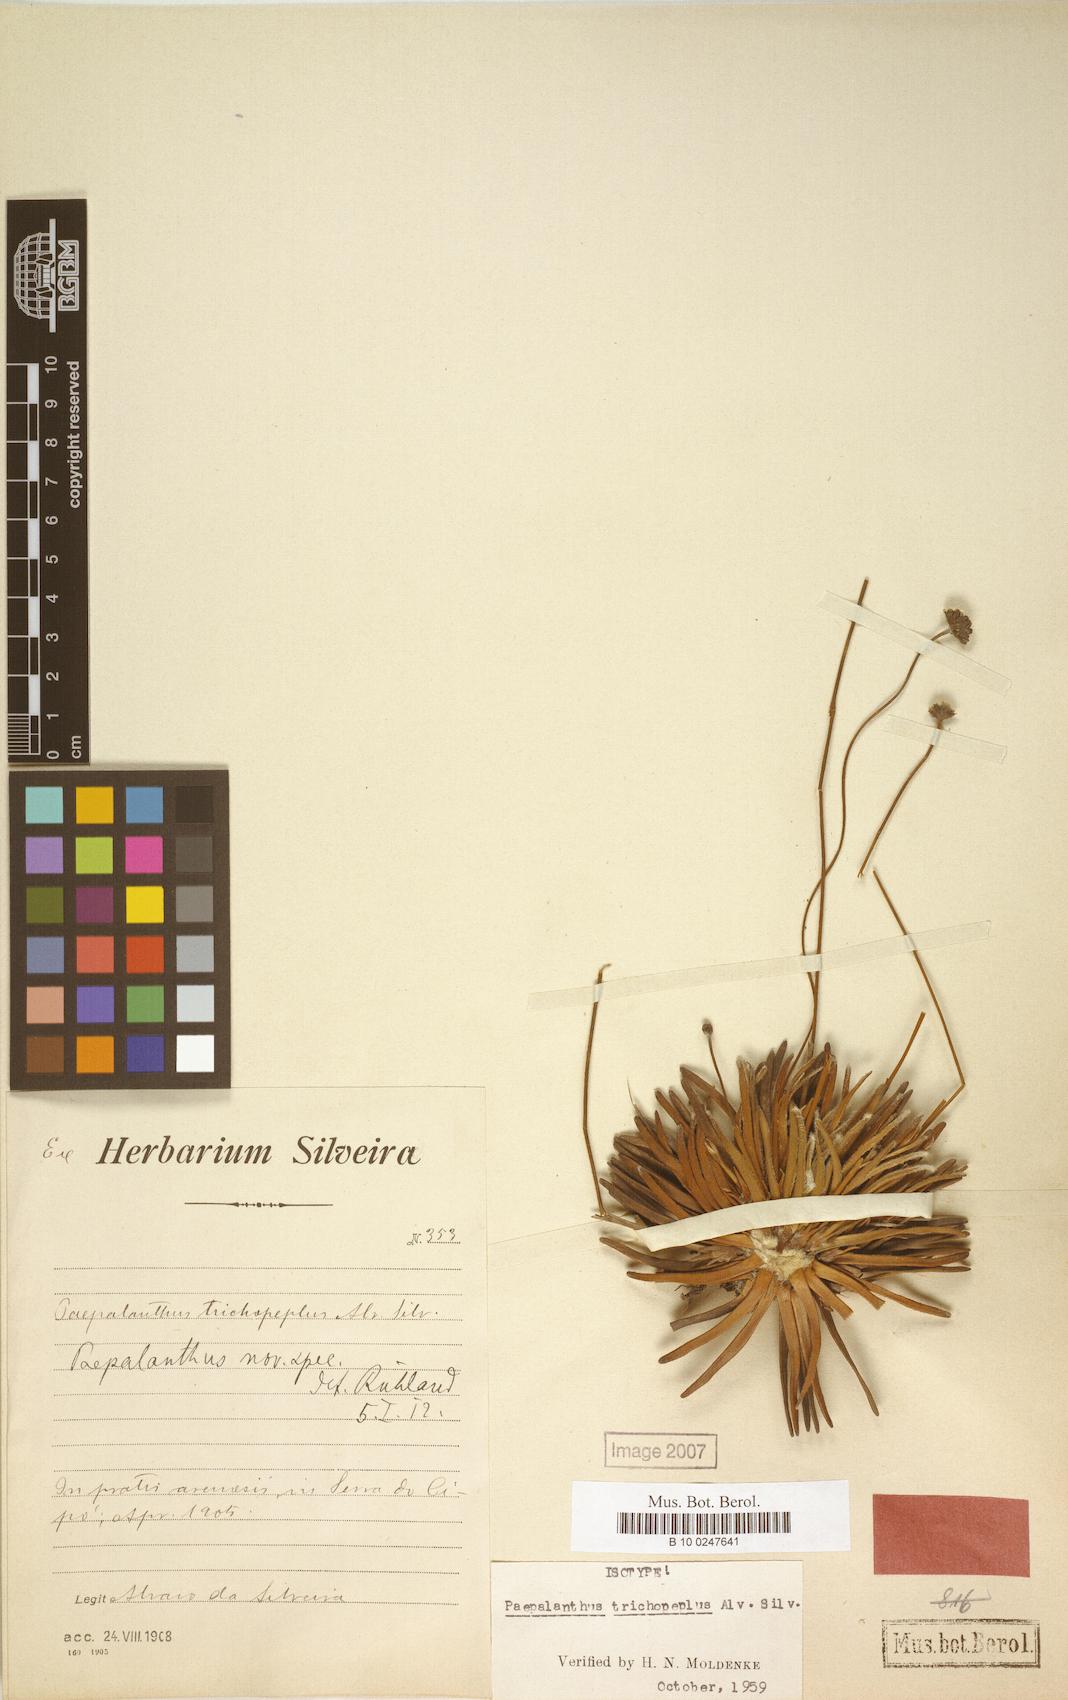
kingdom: Plantae
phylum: Tracheophyta
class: Liliopsida
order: Poales
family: Eriocaulaceae
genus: Paepalanthus
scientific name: Paepalanthus trichopeplus
